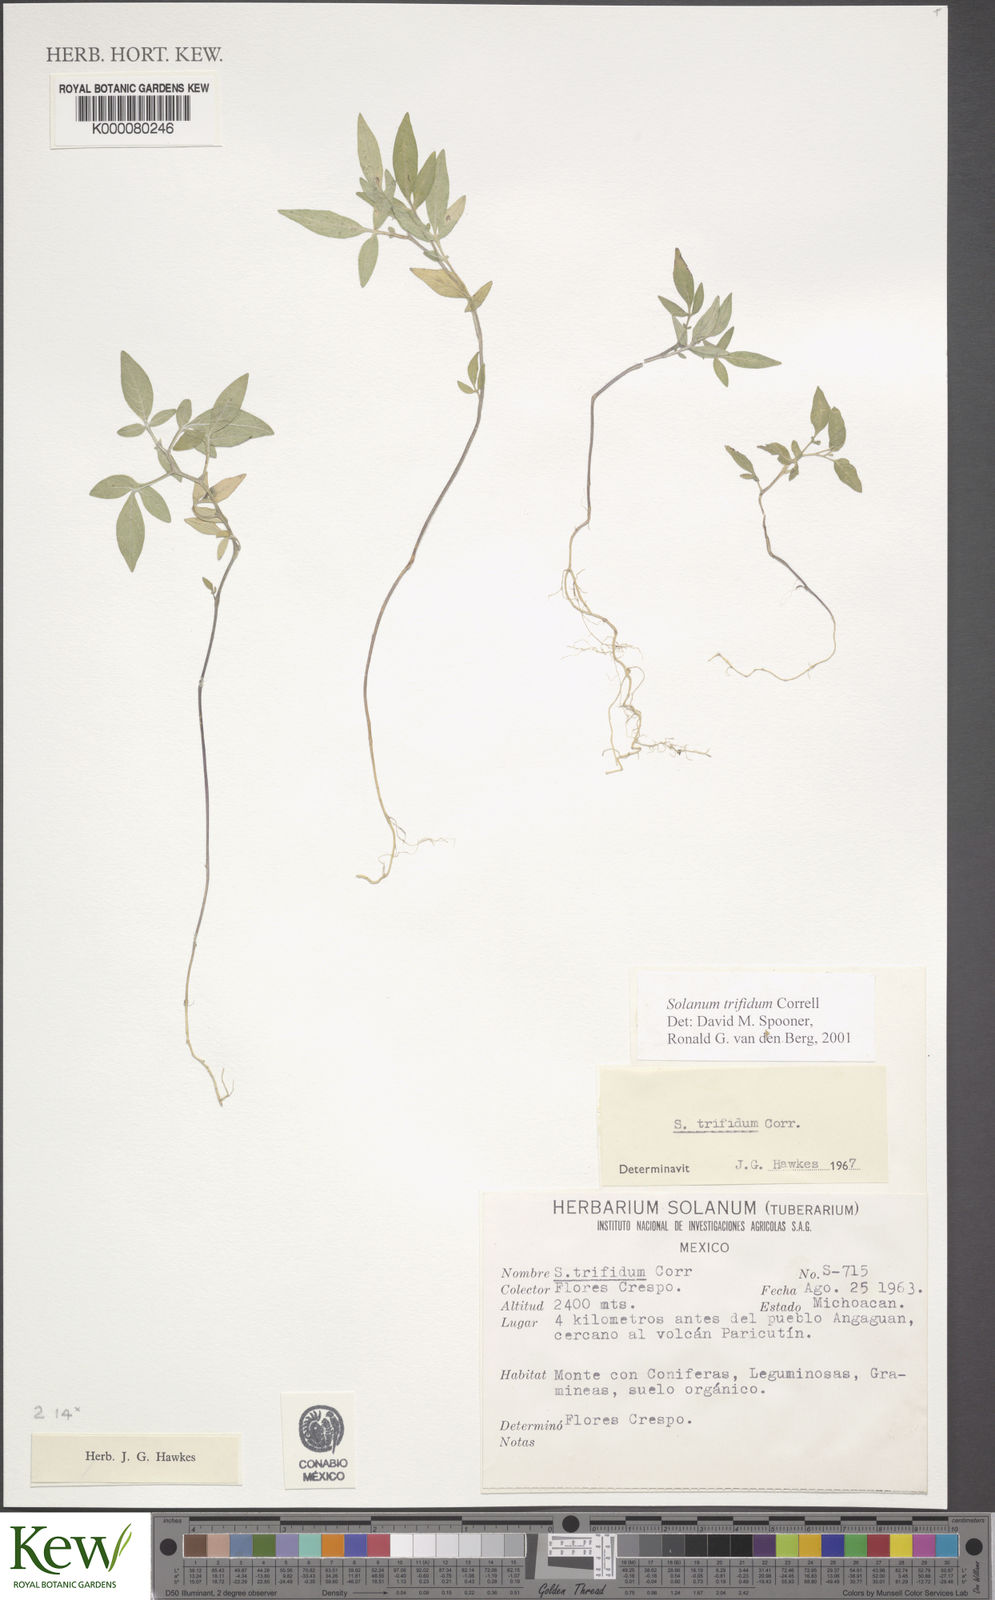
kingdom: Plantae
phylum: Tracheophyta
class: Magnoliopsida
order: Solanales
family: Solanaceae
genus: Solanum
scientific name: Solanum trifidum
